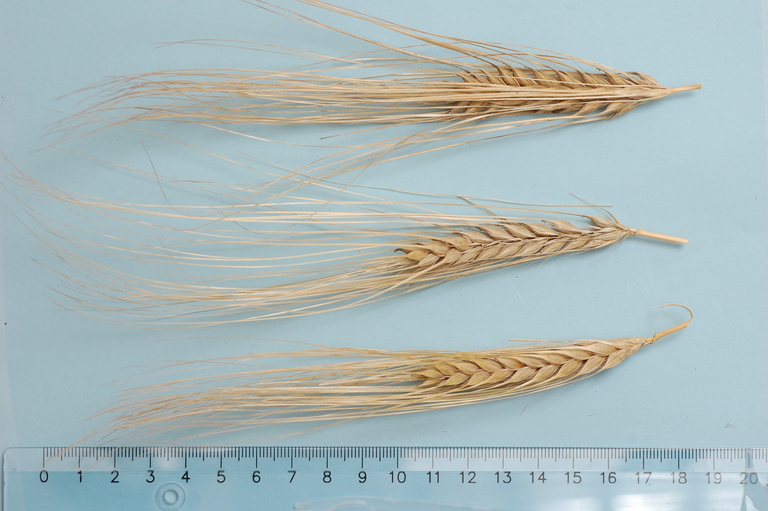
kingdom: Plantae
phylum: Tracheophyta
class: Liliopsida
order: Poales
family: Poaceae
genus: Hordeum
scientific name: Hordeum vulgare
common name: Common barley
